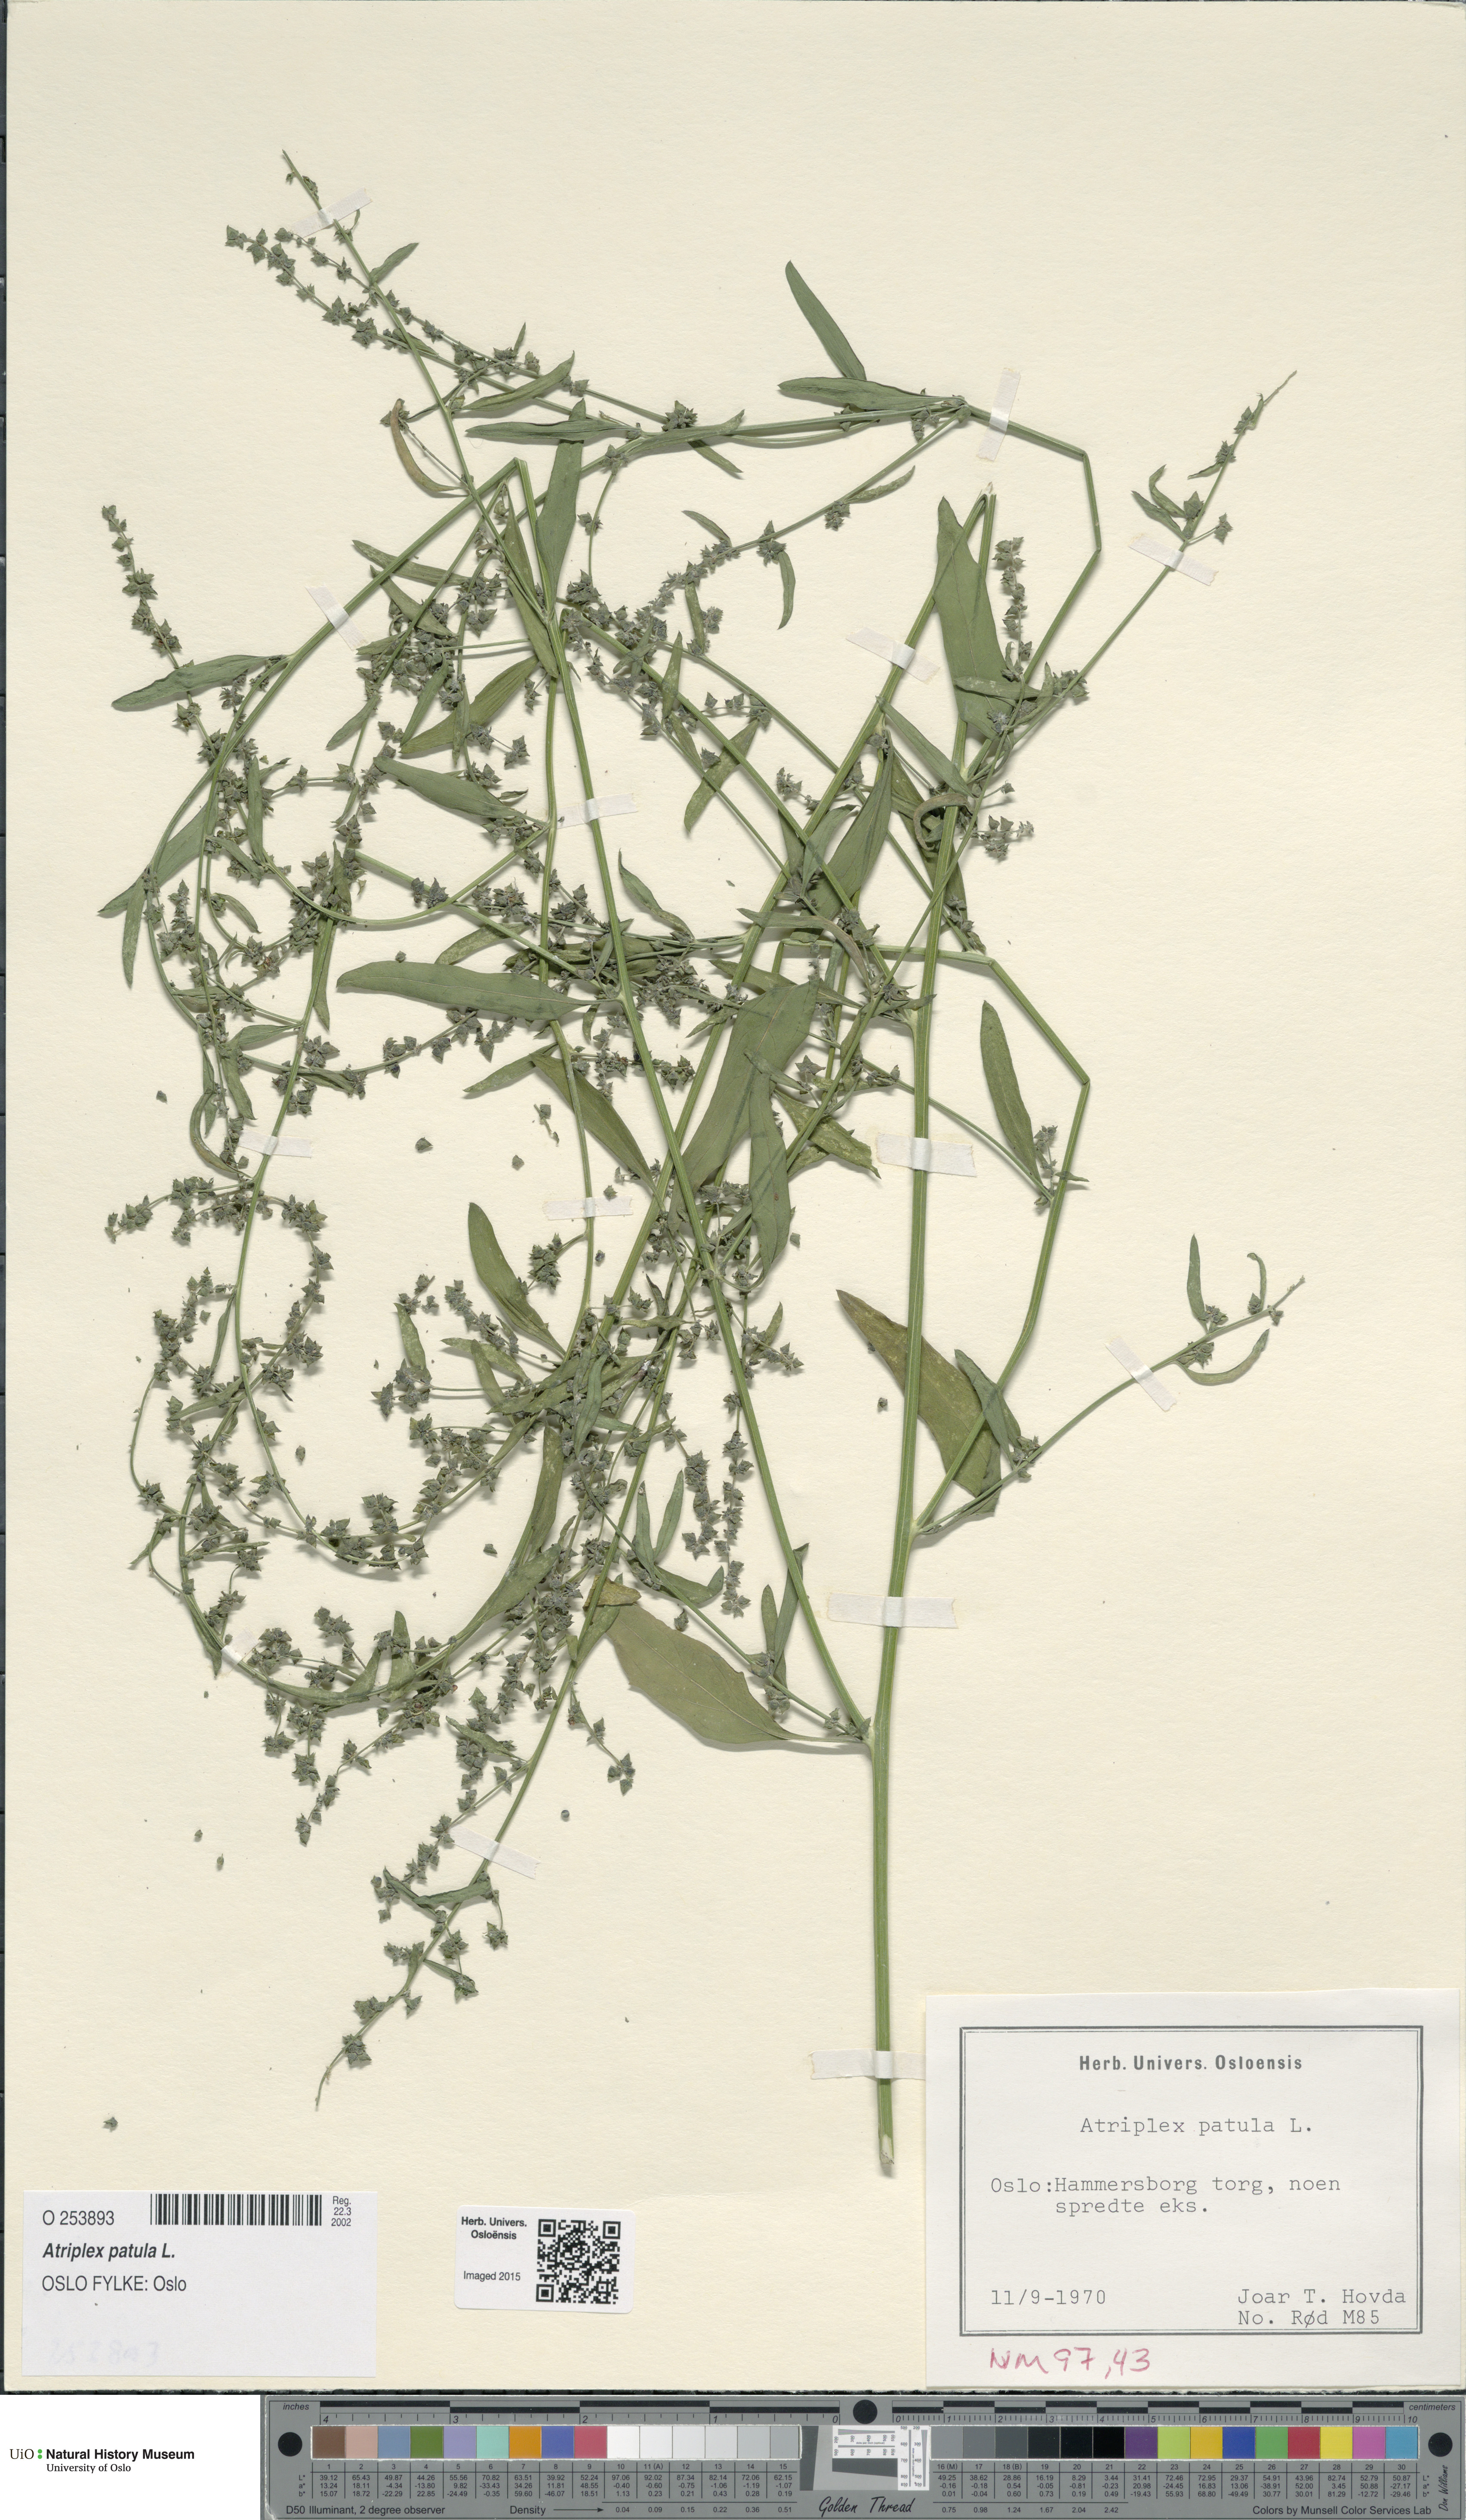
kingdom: Plantae
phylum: Tracheophyta
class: Magnoliopsida
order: Caryophyllales
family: Amaranthaceae
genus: Atriplex
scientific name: Atriplex patula
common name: Common orache
